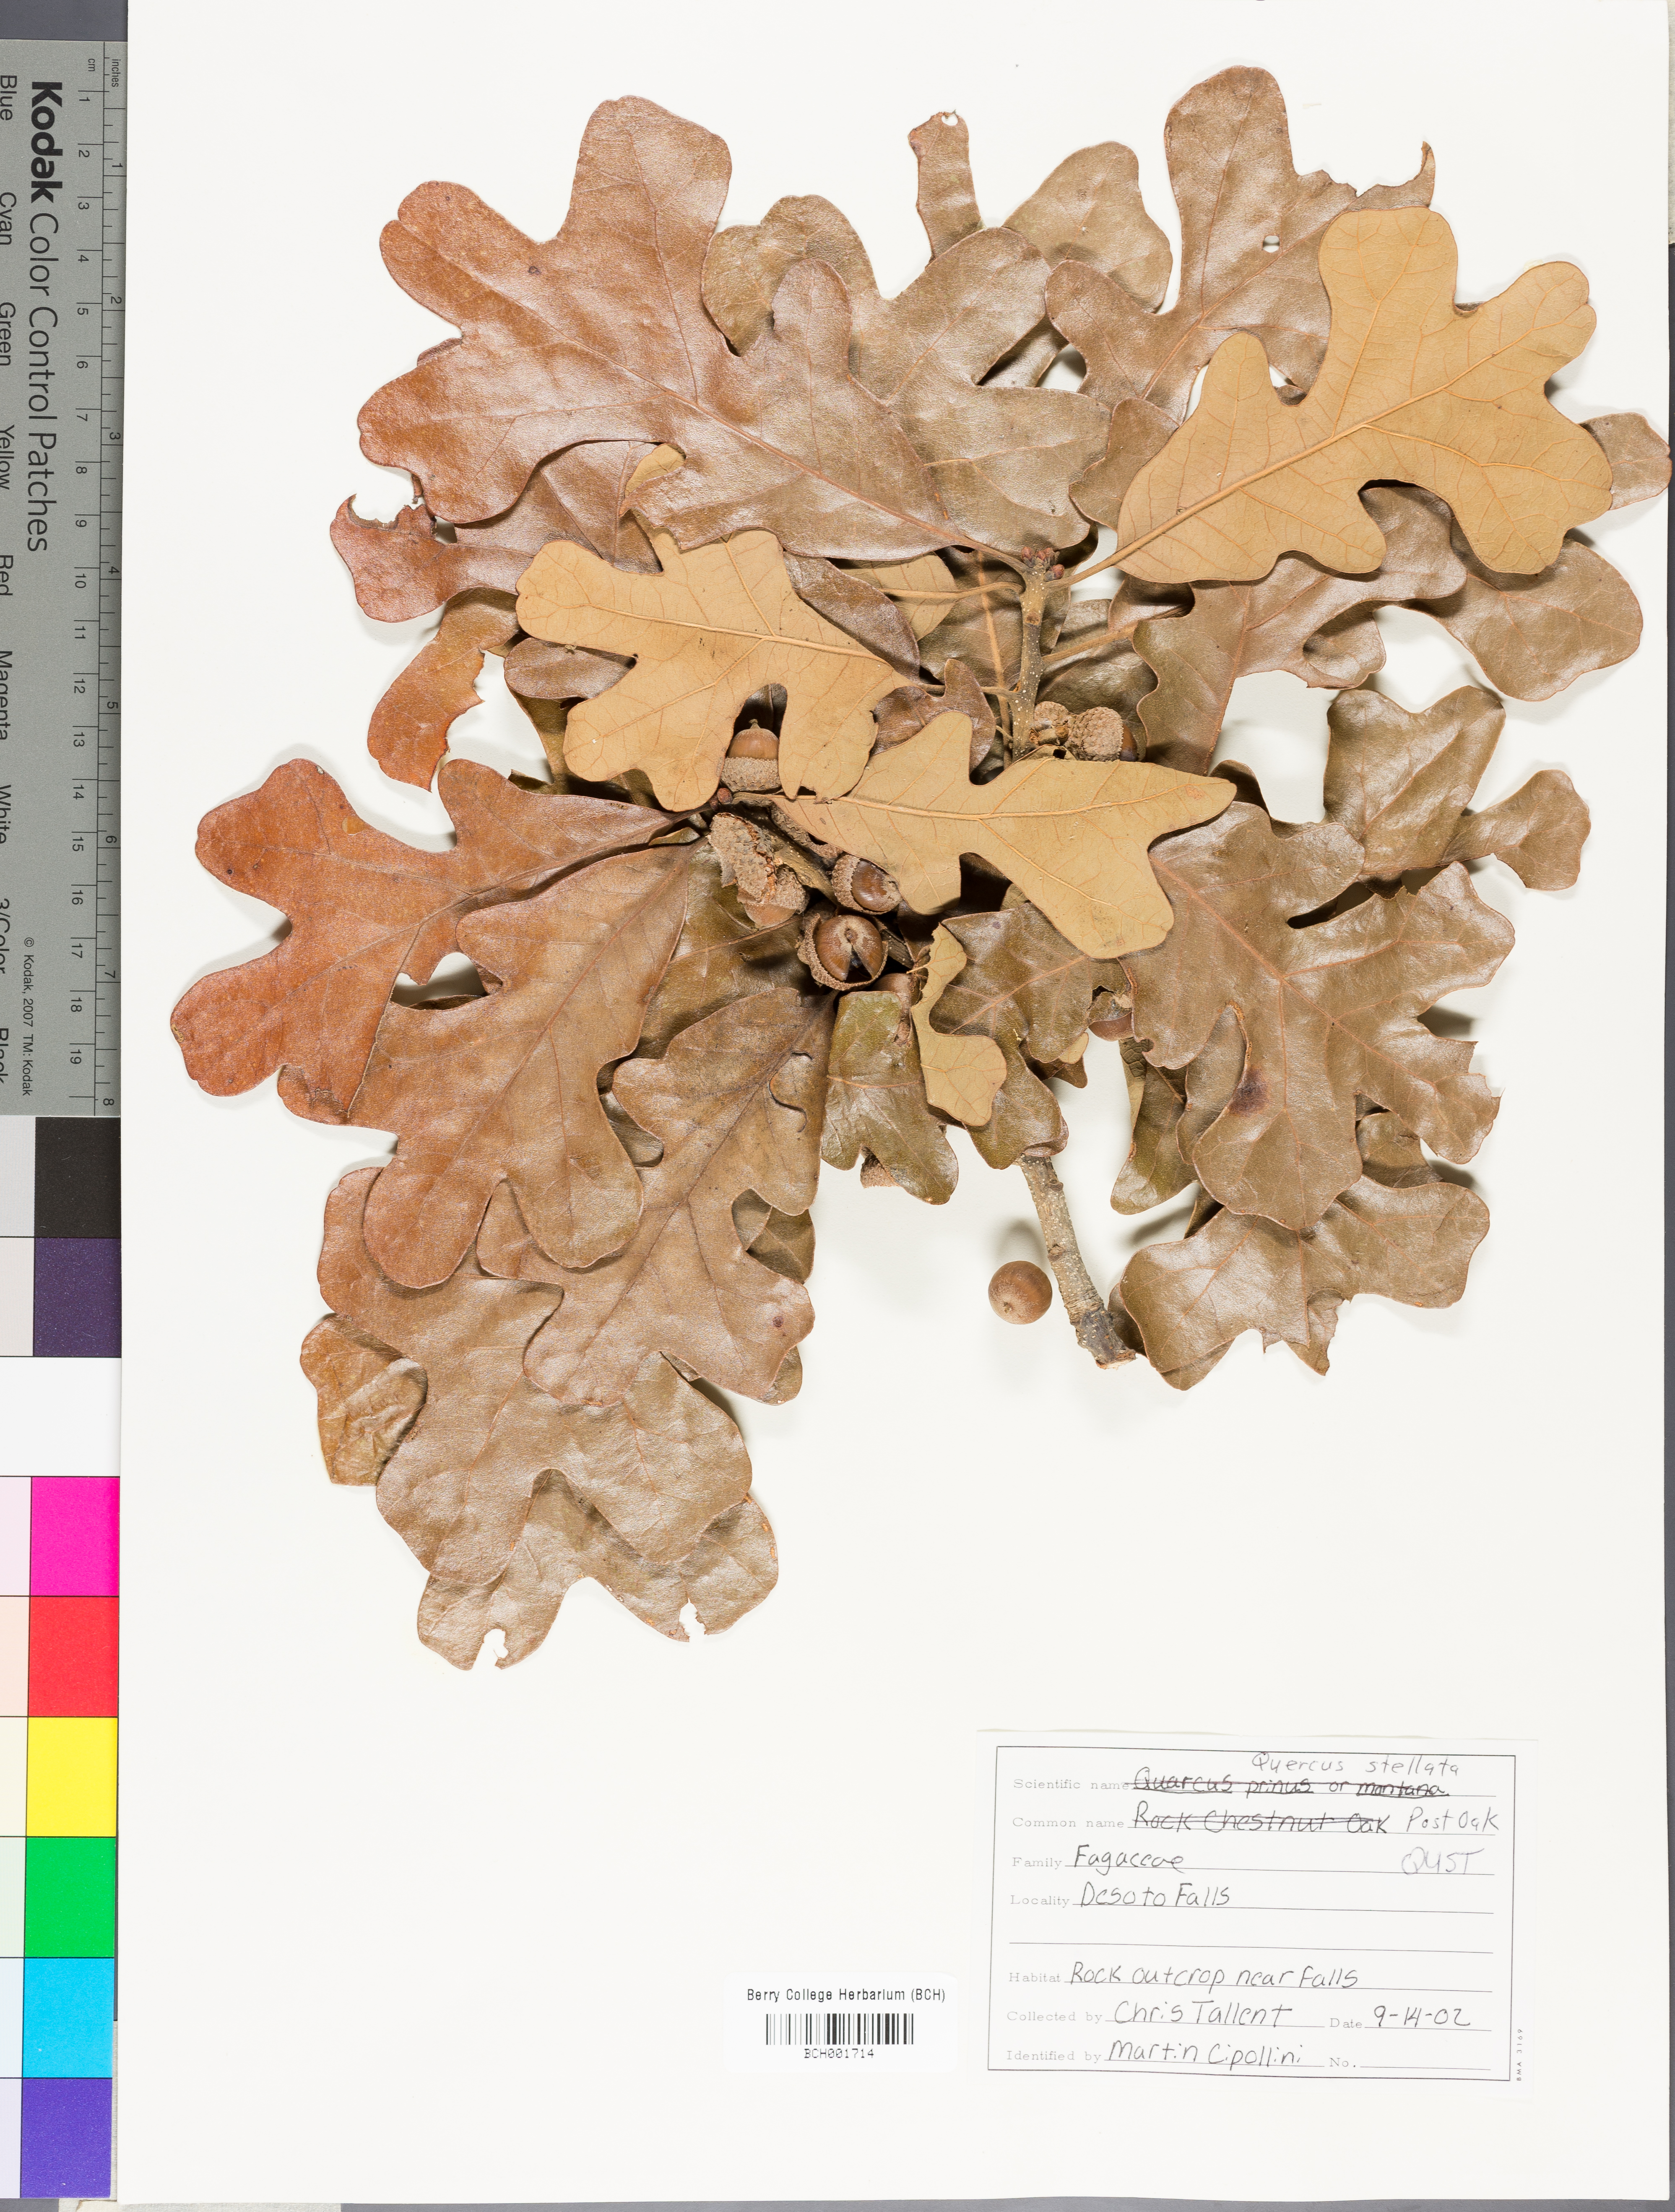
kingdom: Plantae
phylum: Tracheophyta
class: Magnoliopsida
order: Fagales
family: Fagaceae
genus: Quercus
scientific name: Quercus stellata
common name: Post oak
